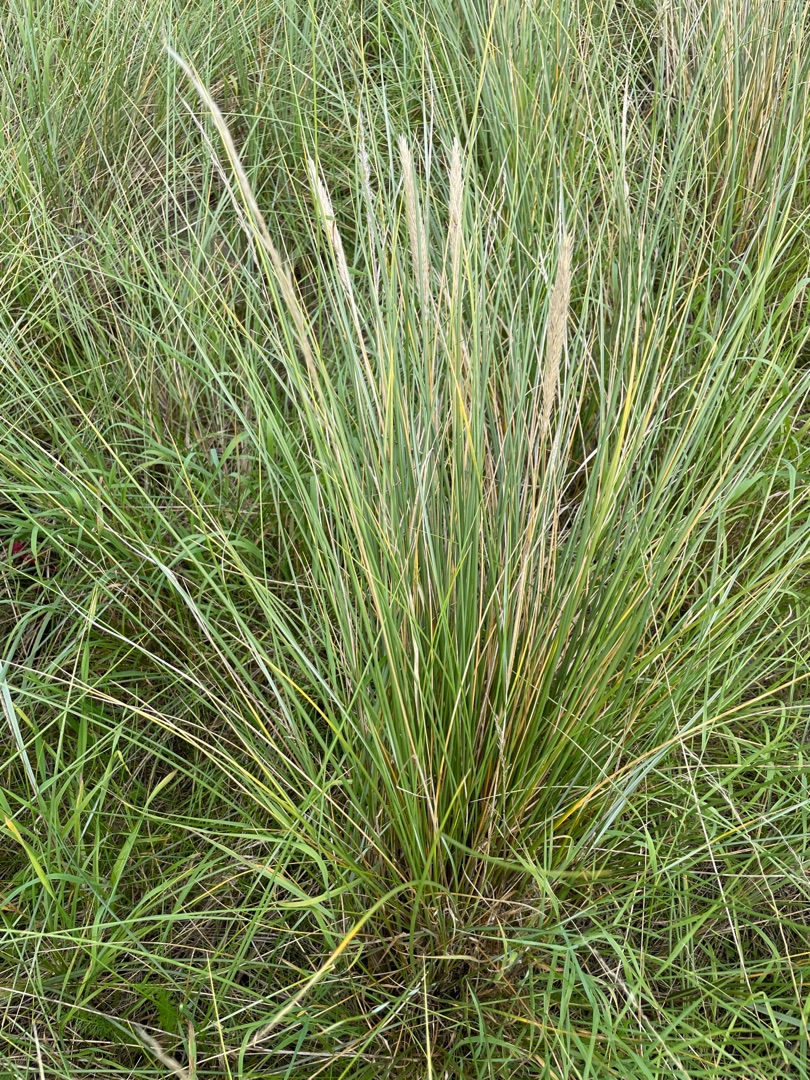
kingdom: Plantae
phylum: Tracheophyta
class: Liliopsida
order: Poales
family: Poaceae
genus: Calamagrostis
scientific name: Calamagrostis arenaria
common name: Sand-hjælme
